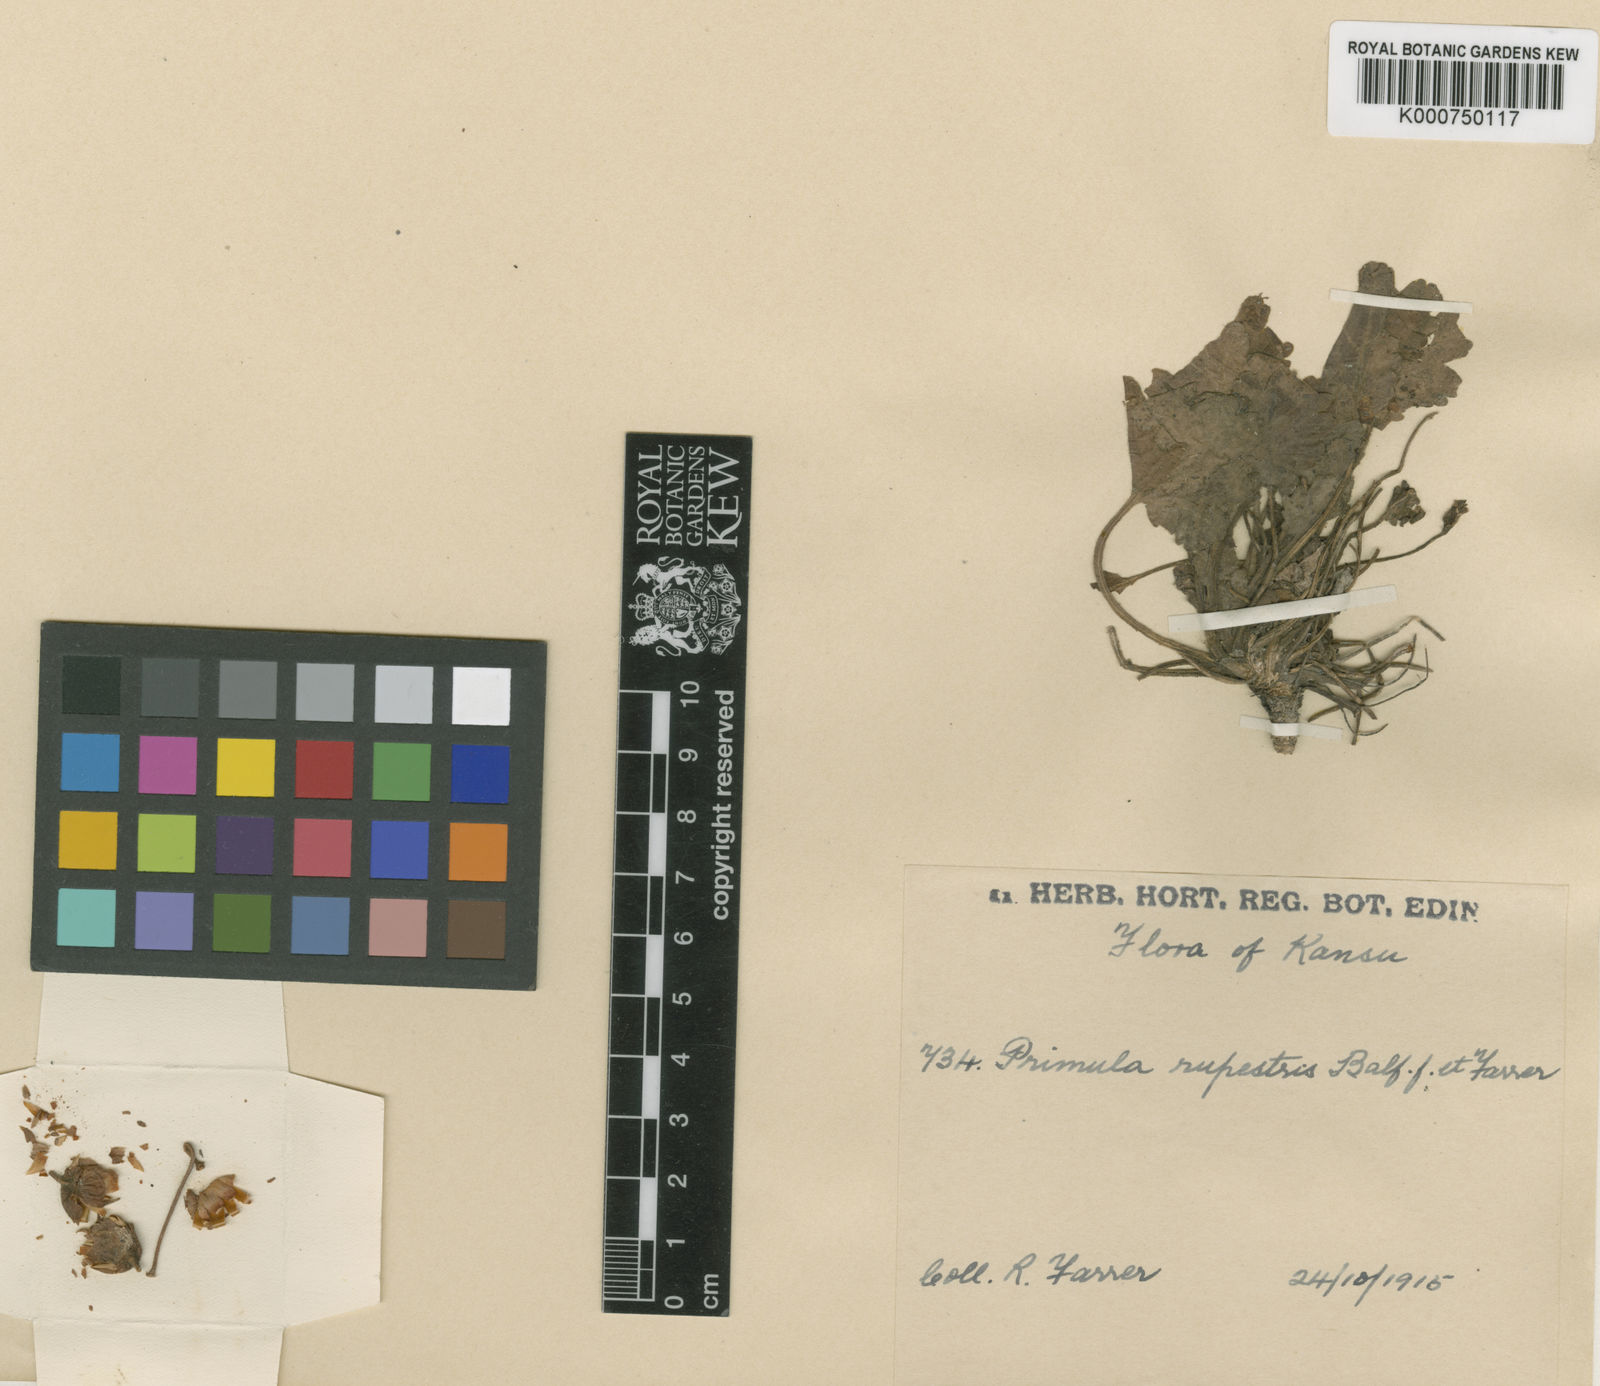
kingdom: Plantae
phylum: Tracheophyta
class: Magnoliopsida
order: Ericales
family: Primulaceae
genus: Primula
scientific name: Primula rupestris
